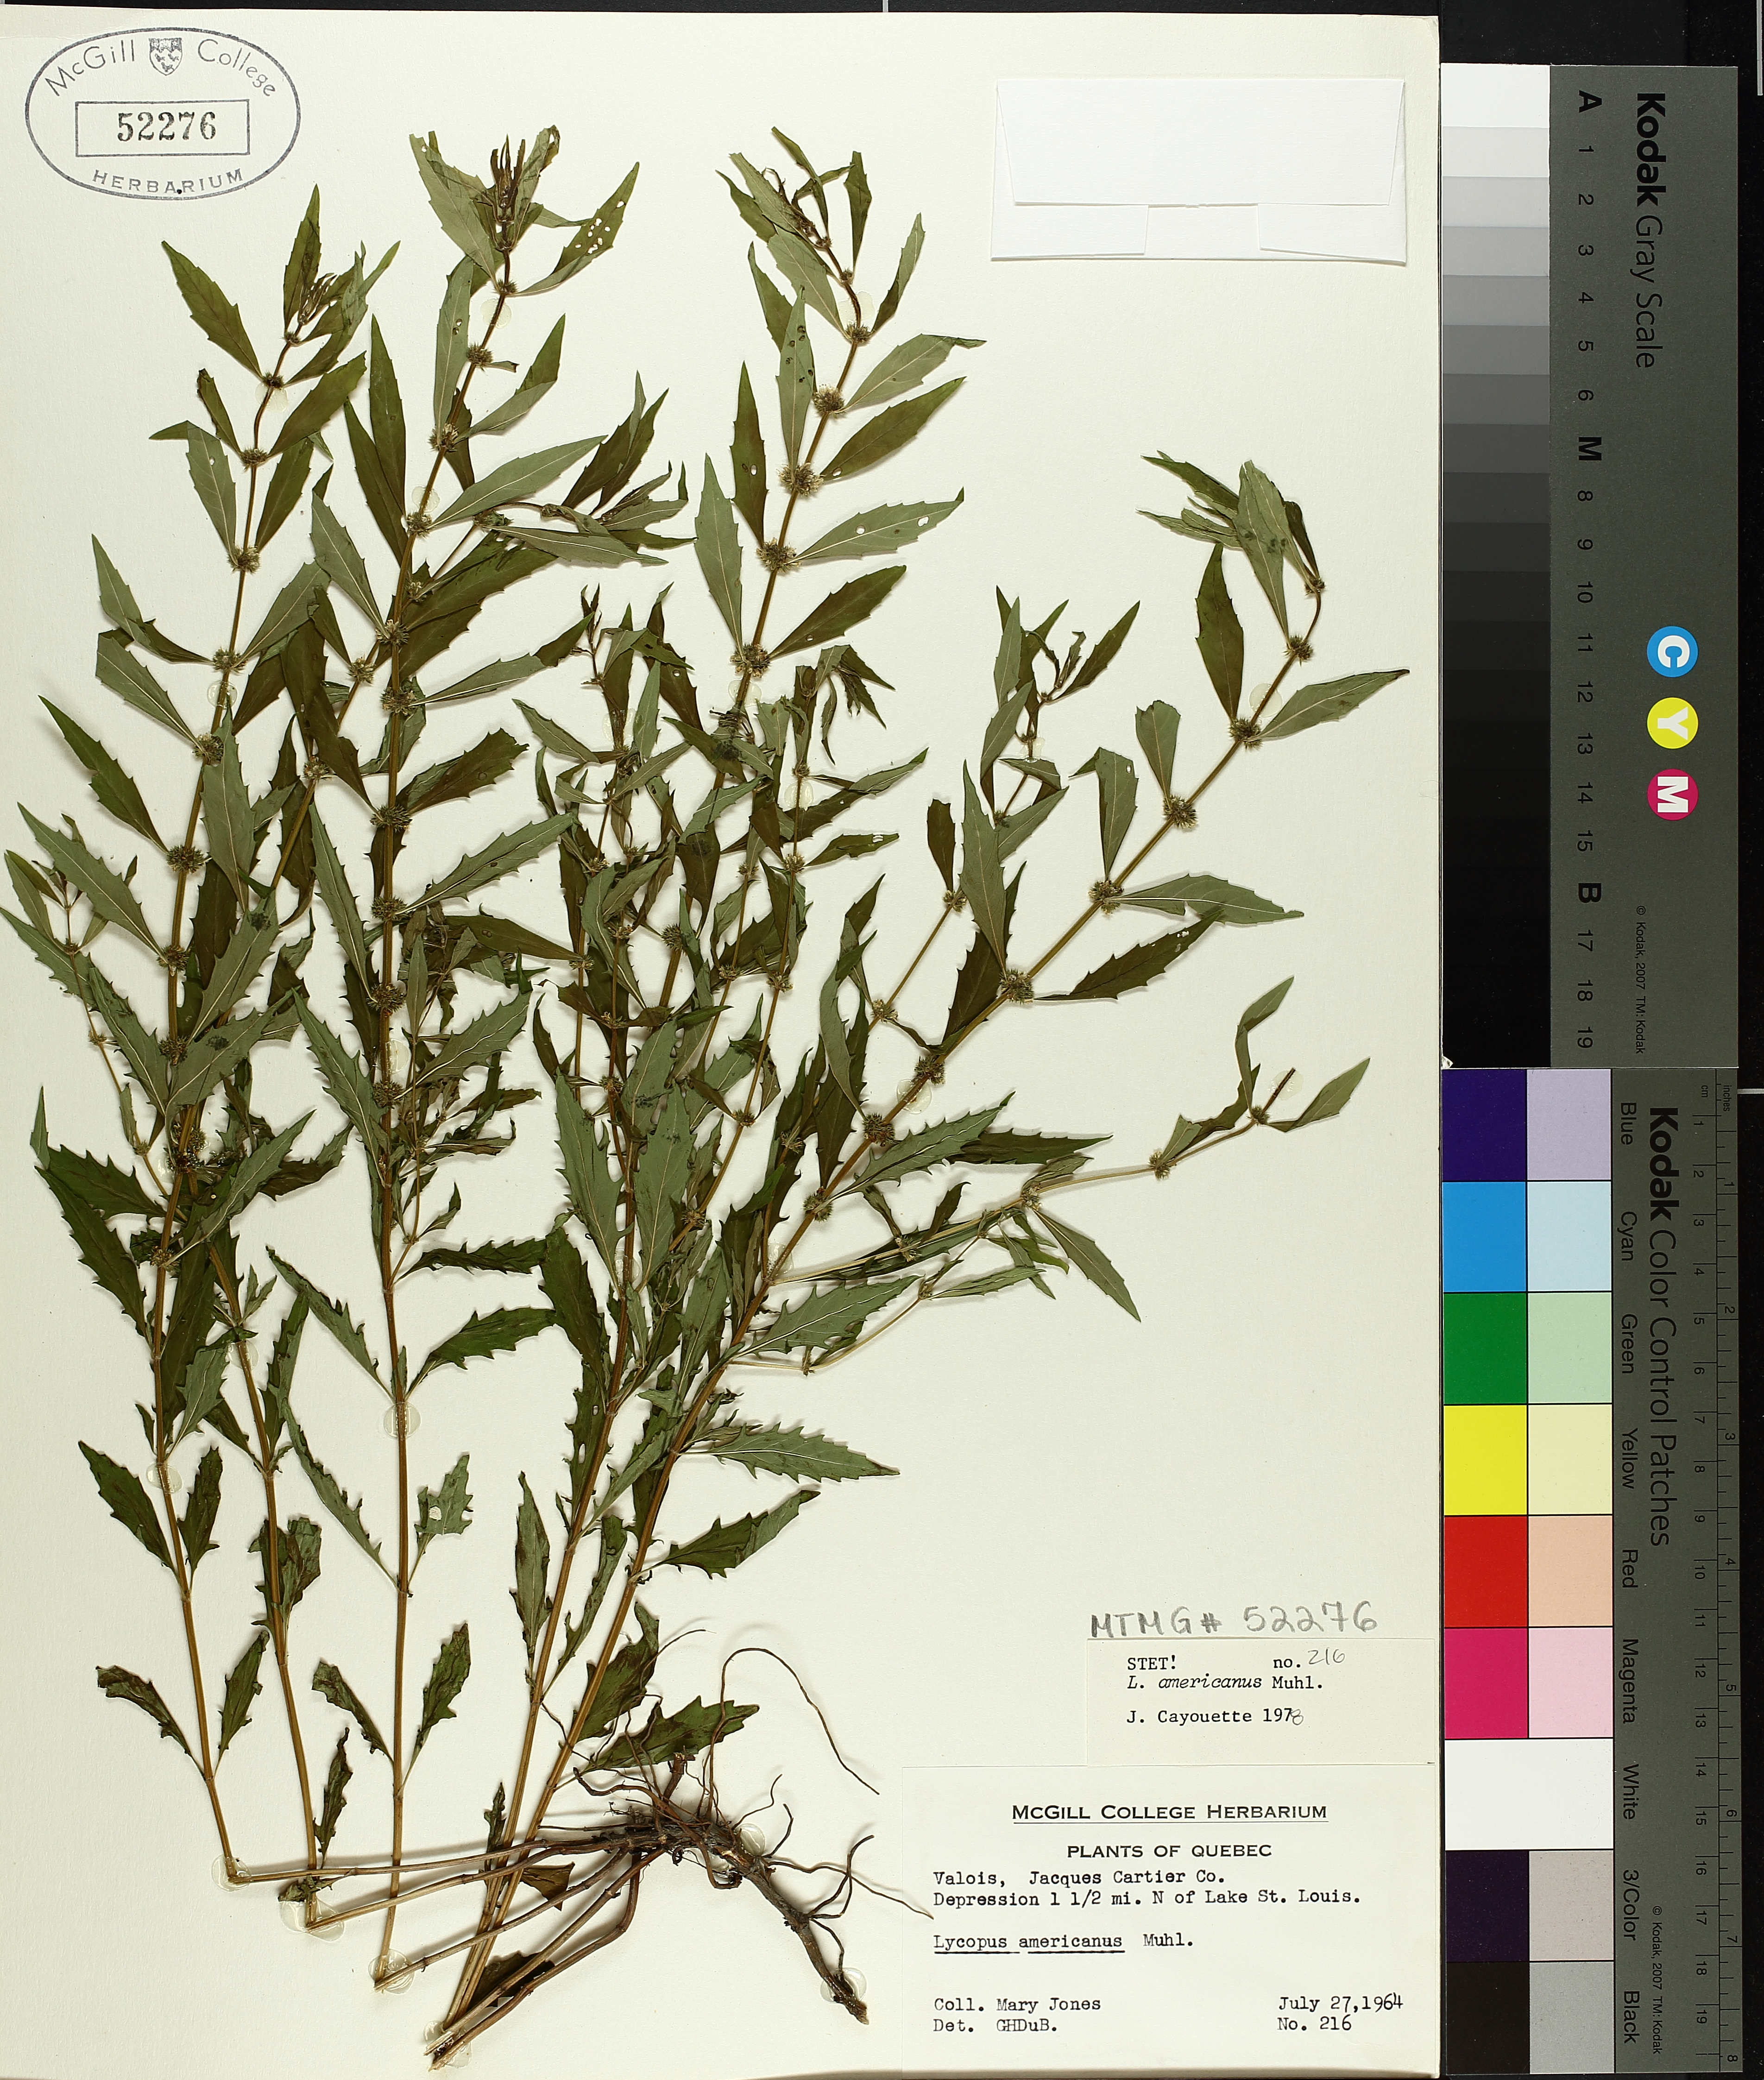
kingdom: Plantae
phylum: Tracheophyta
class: Magnoliopsida
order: Lamiales
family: Lamiaceae
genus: Lycopus
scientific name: Lycopus americanus
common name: American bugleweed
